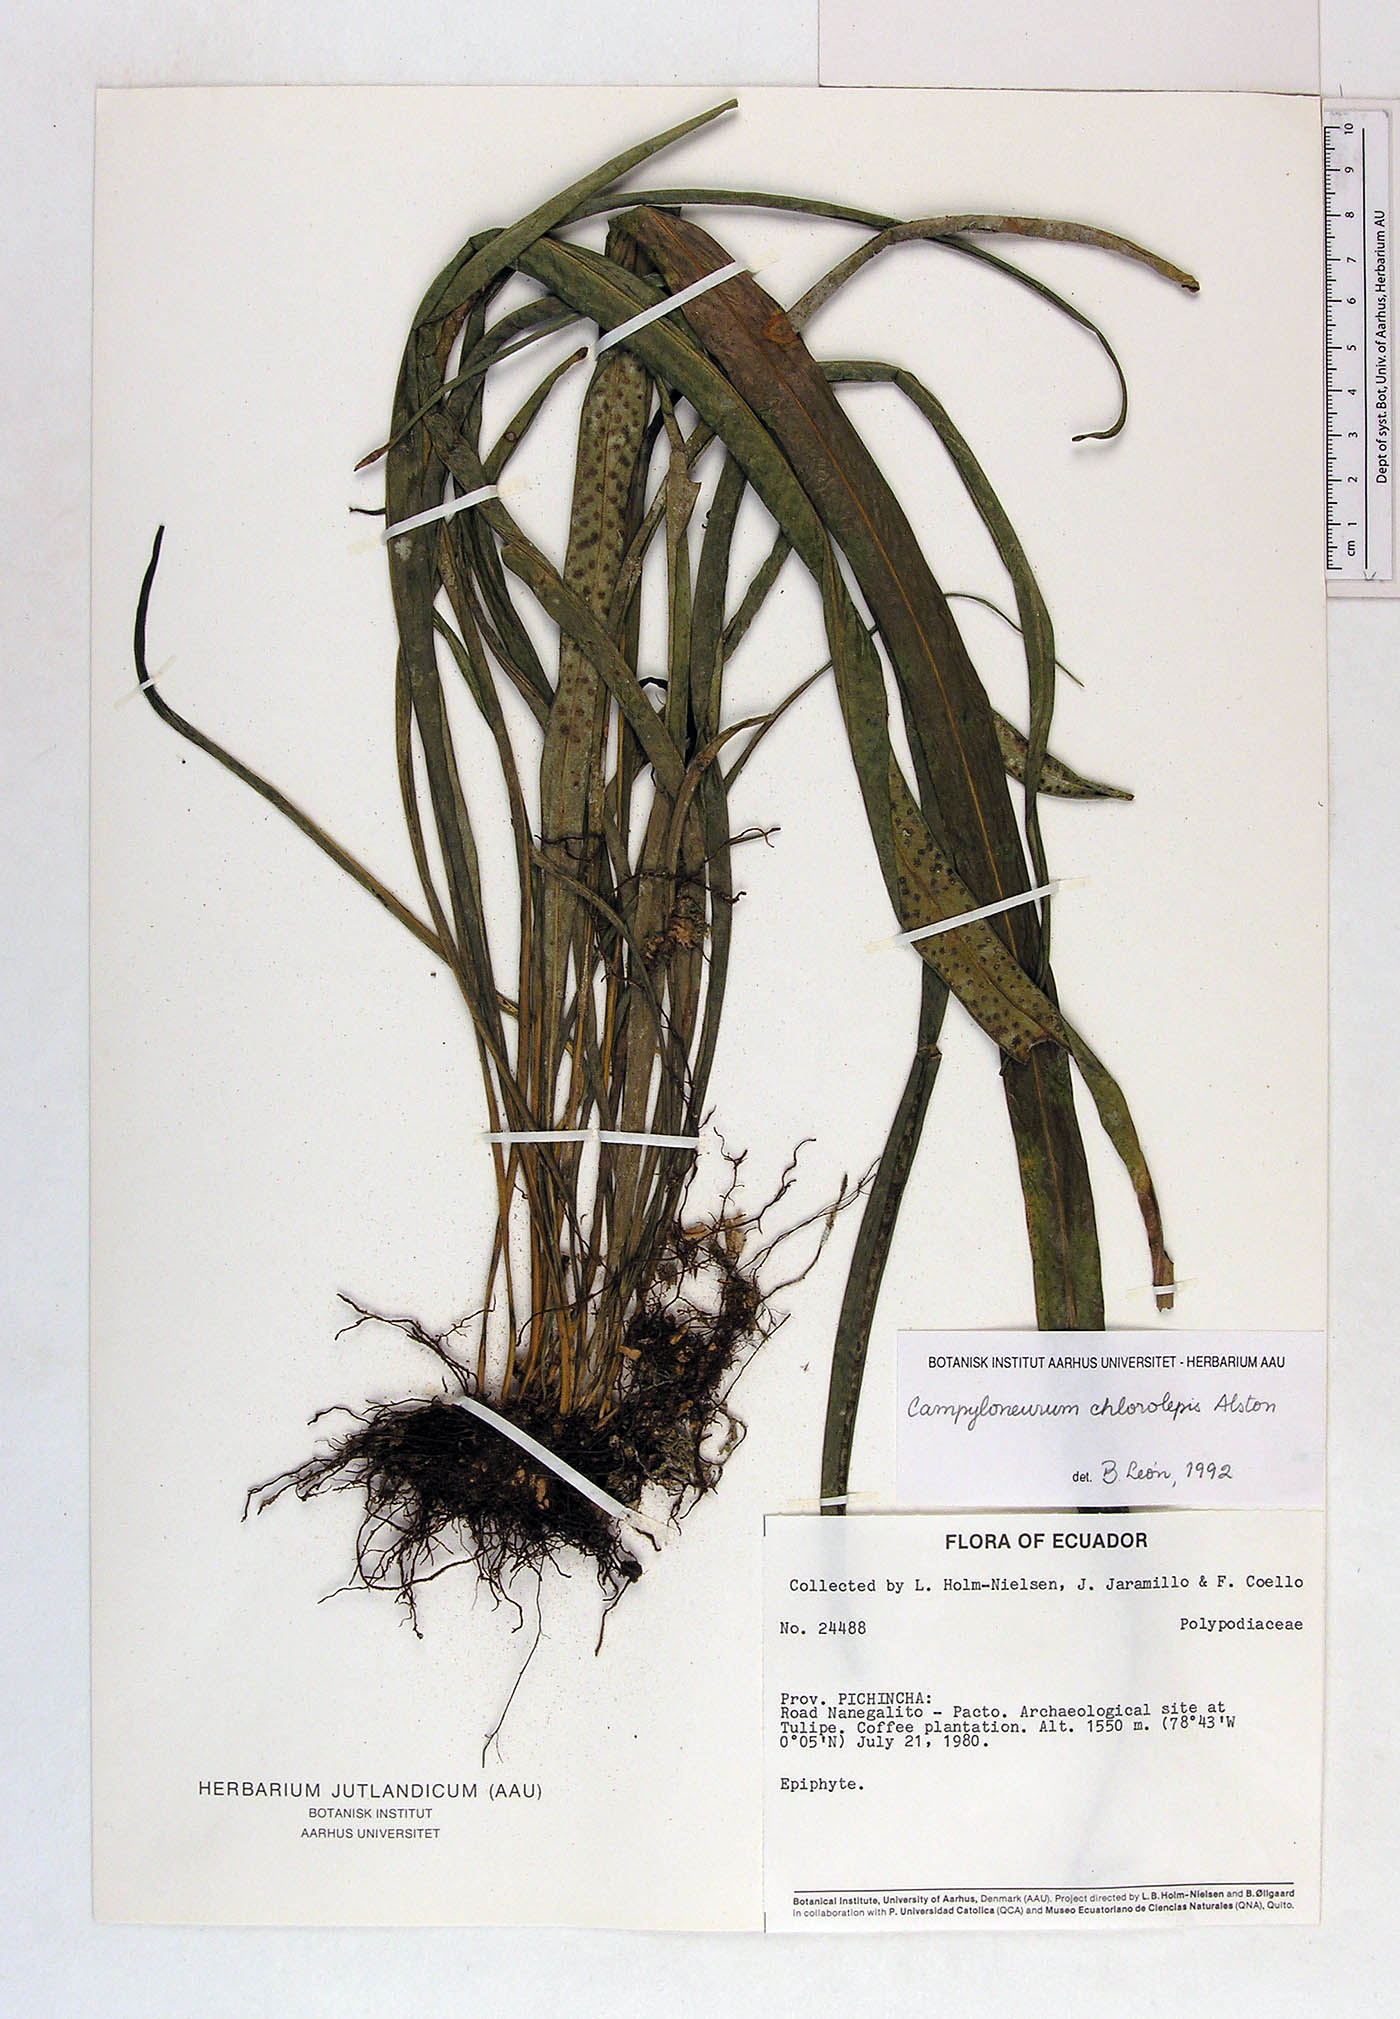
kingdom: Plantae
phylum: Tracheophyta
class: Polypodiopsida
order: Polypodiales
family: Polypodiaceae
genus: Campyloneurum
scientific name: Campyloneurum angustifolium
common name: Narrow-leaf strap fern
